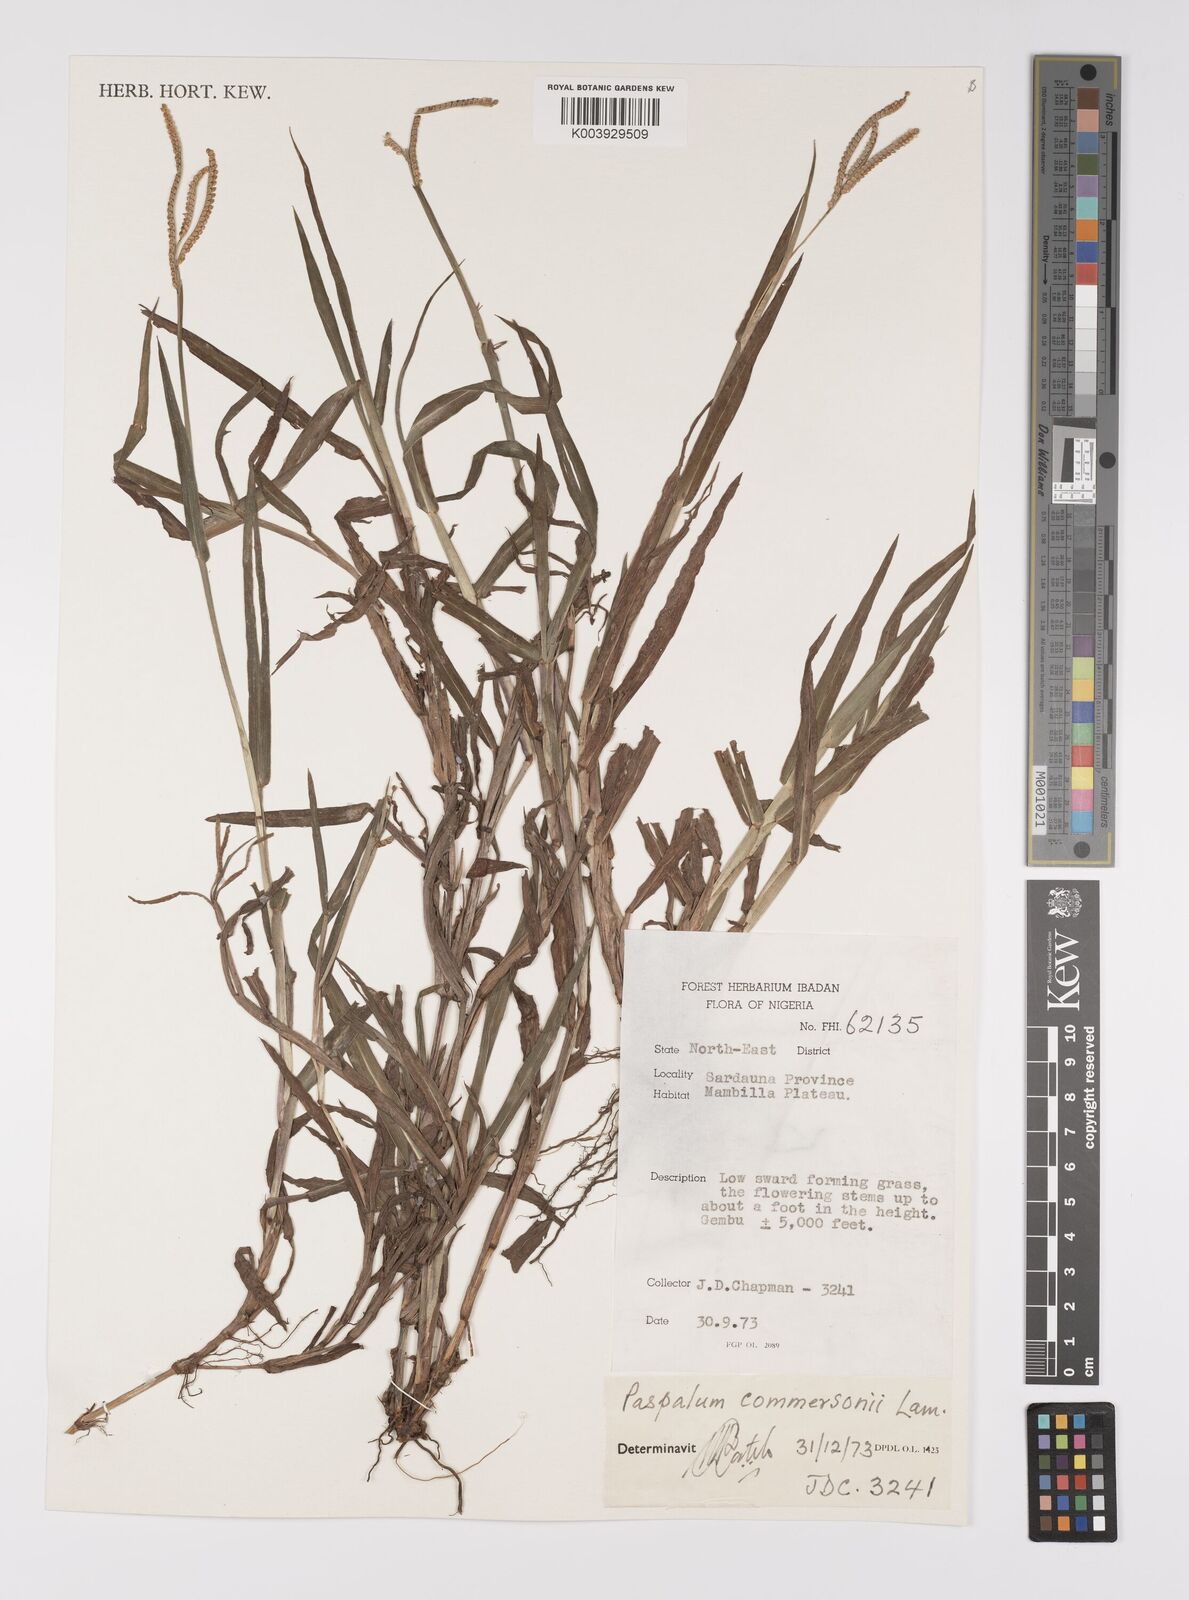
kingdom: Plantae
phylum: Tracheophyta
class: Liliopsida
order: Poales
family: Poaceae
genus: Paspalum
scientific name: Paspalum scrobiculatum
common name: Kodo millet
